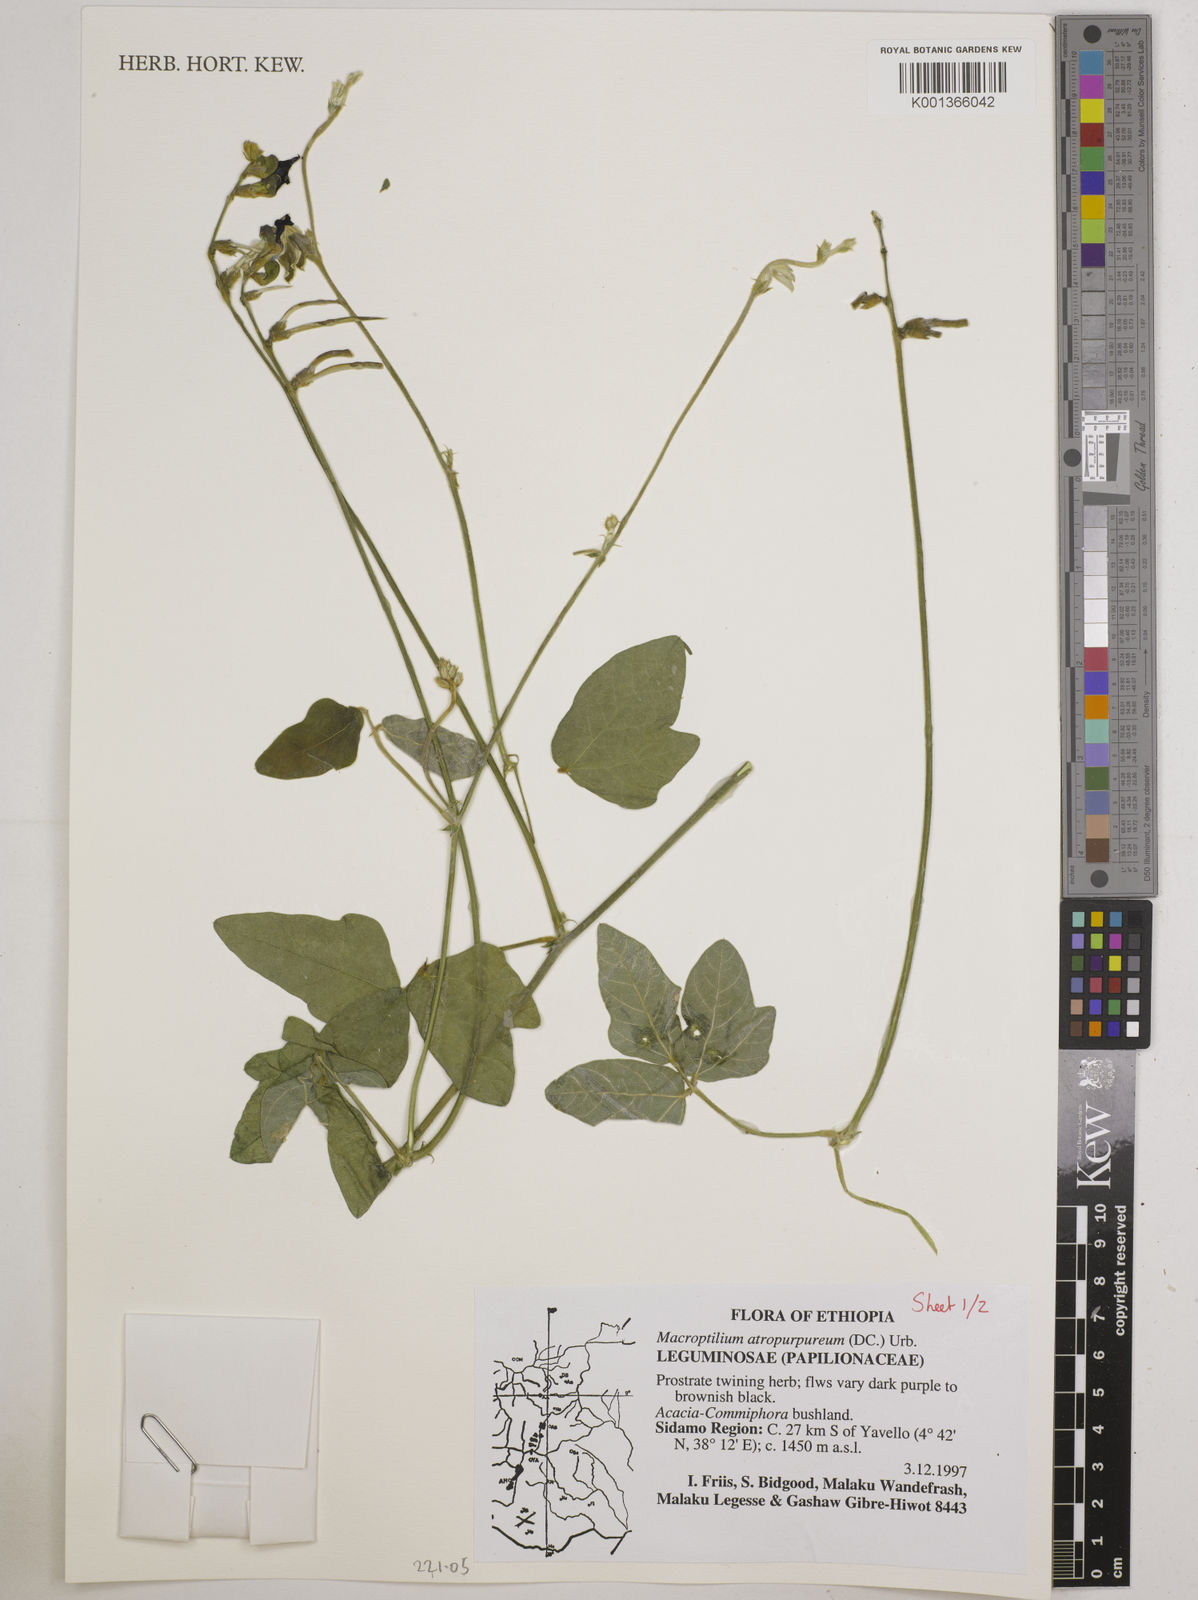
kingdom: Plantae
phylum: Tracheophyta
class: Magnoliopsida
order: Fabales
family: Fabaceae
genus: Macroptilium
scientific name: Macroptilium atropurpureum
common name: Purple bushbean
